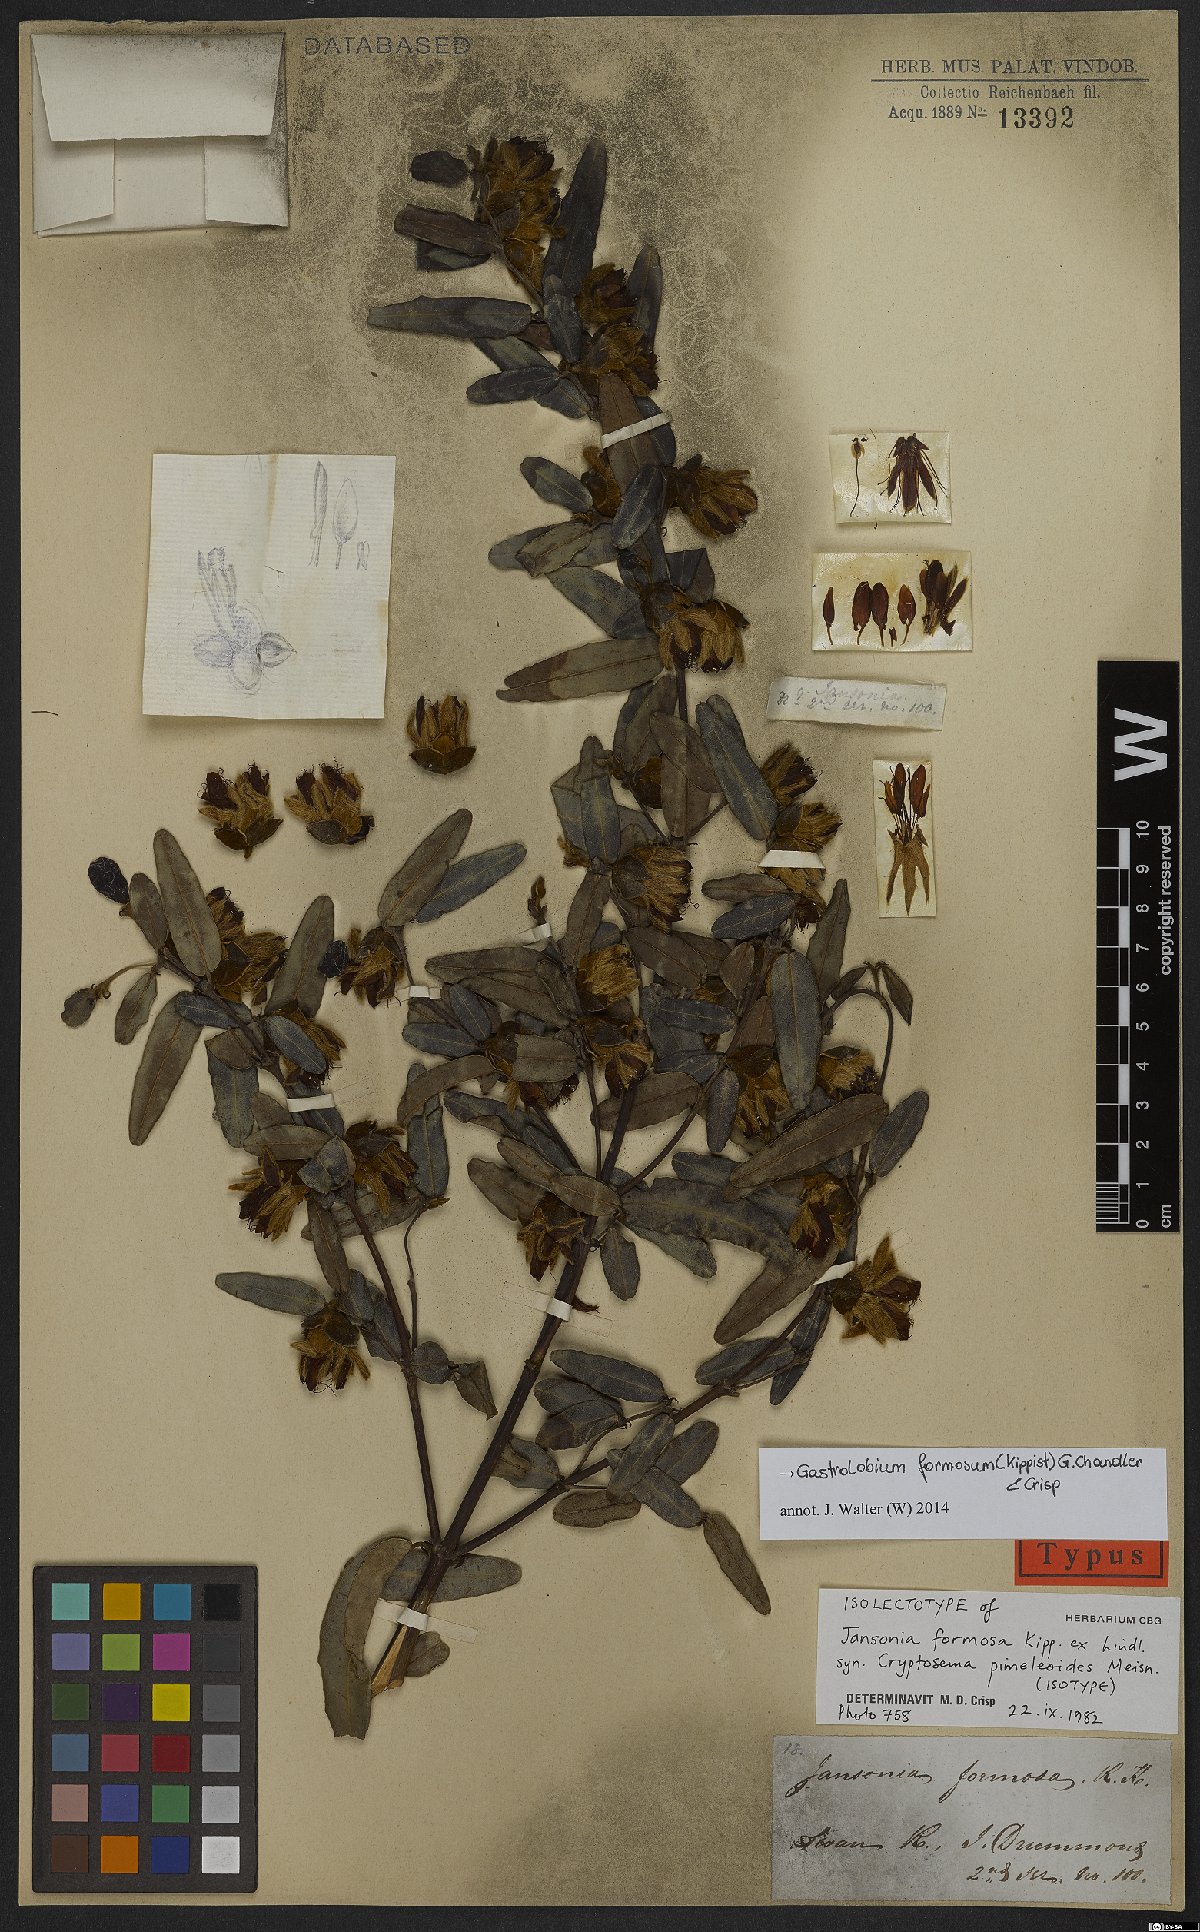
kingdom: Plantae
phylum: Tracheophyta
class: Magnoliopsida
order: Fabales
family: Fabaceae
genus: Gastrolobium
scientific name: Gastrolobium formosum
